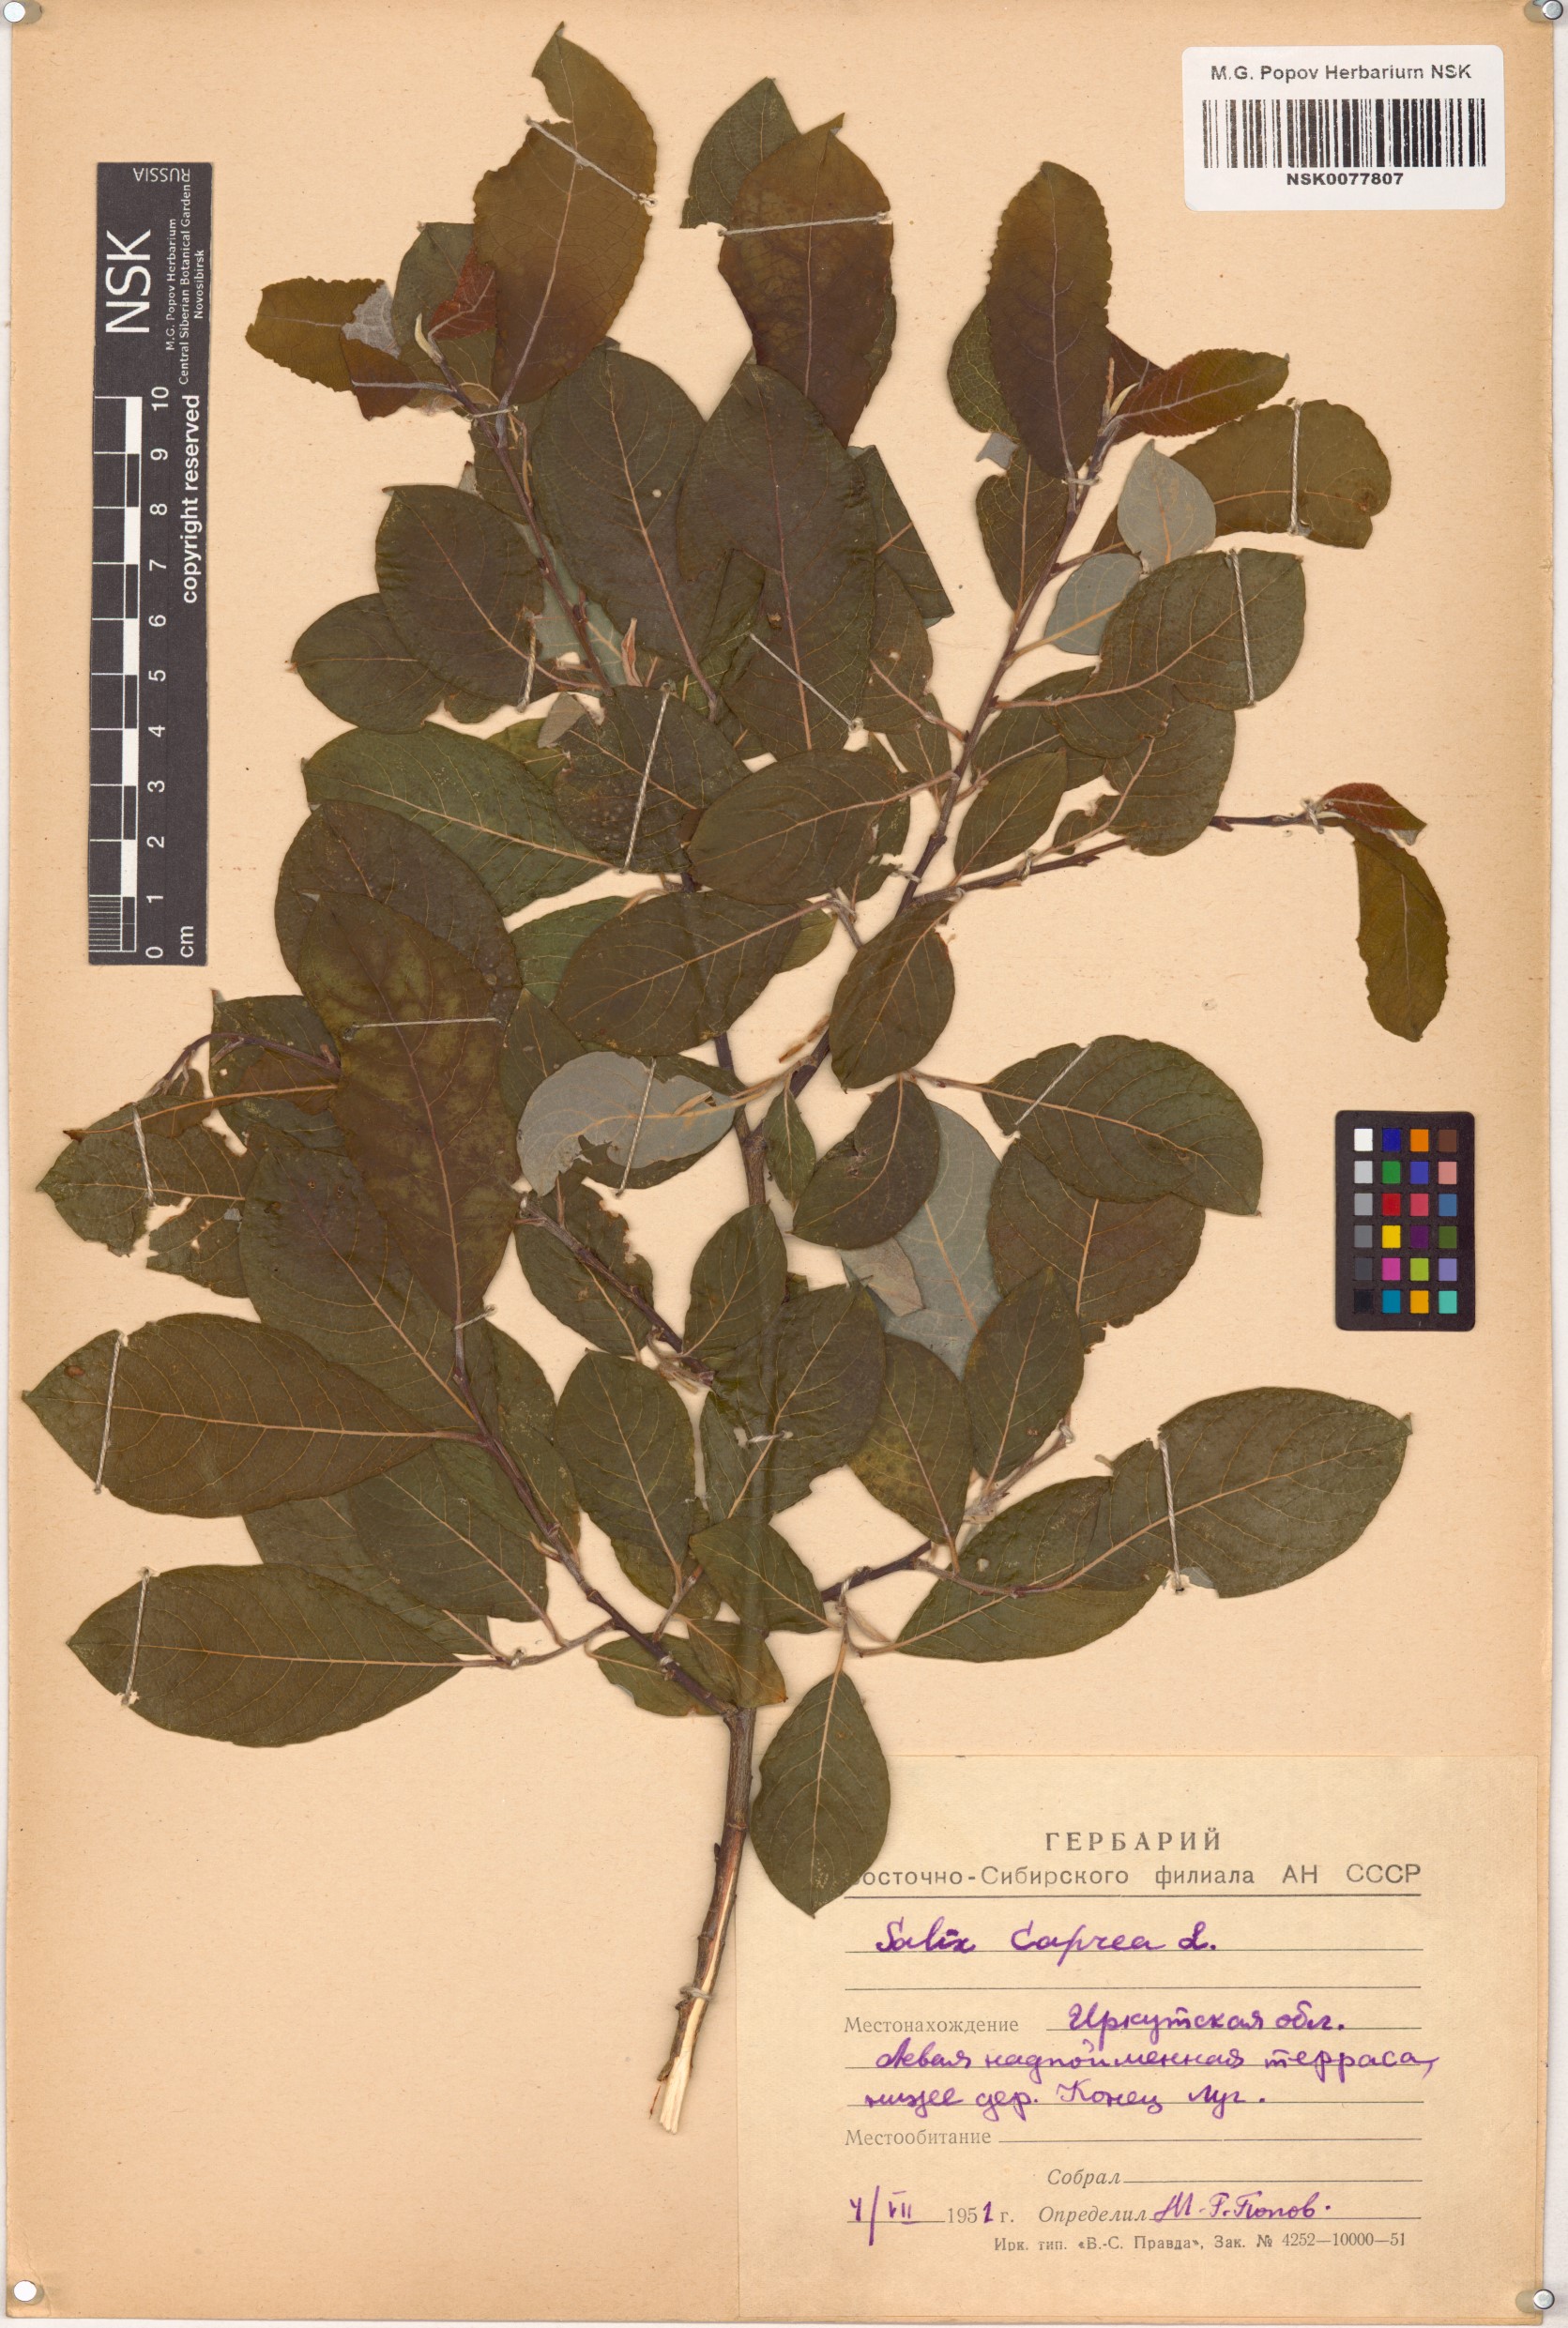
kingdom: Plantae
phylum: Tracheophyta
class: Magnoliopsida
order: Malpighiales
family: Salicaceae
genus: Salix
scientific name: Salix caprea
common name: Goat willow
